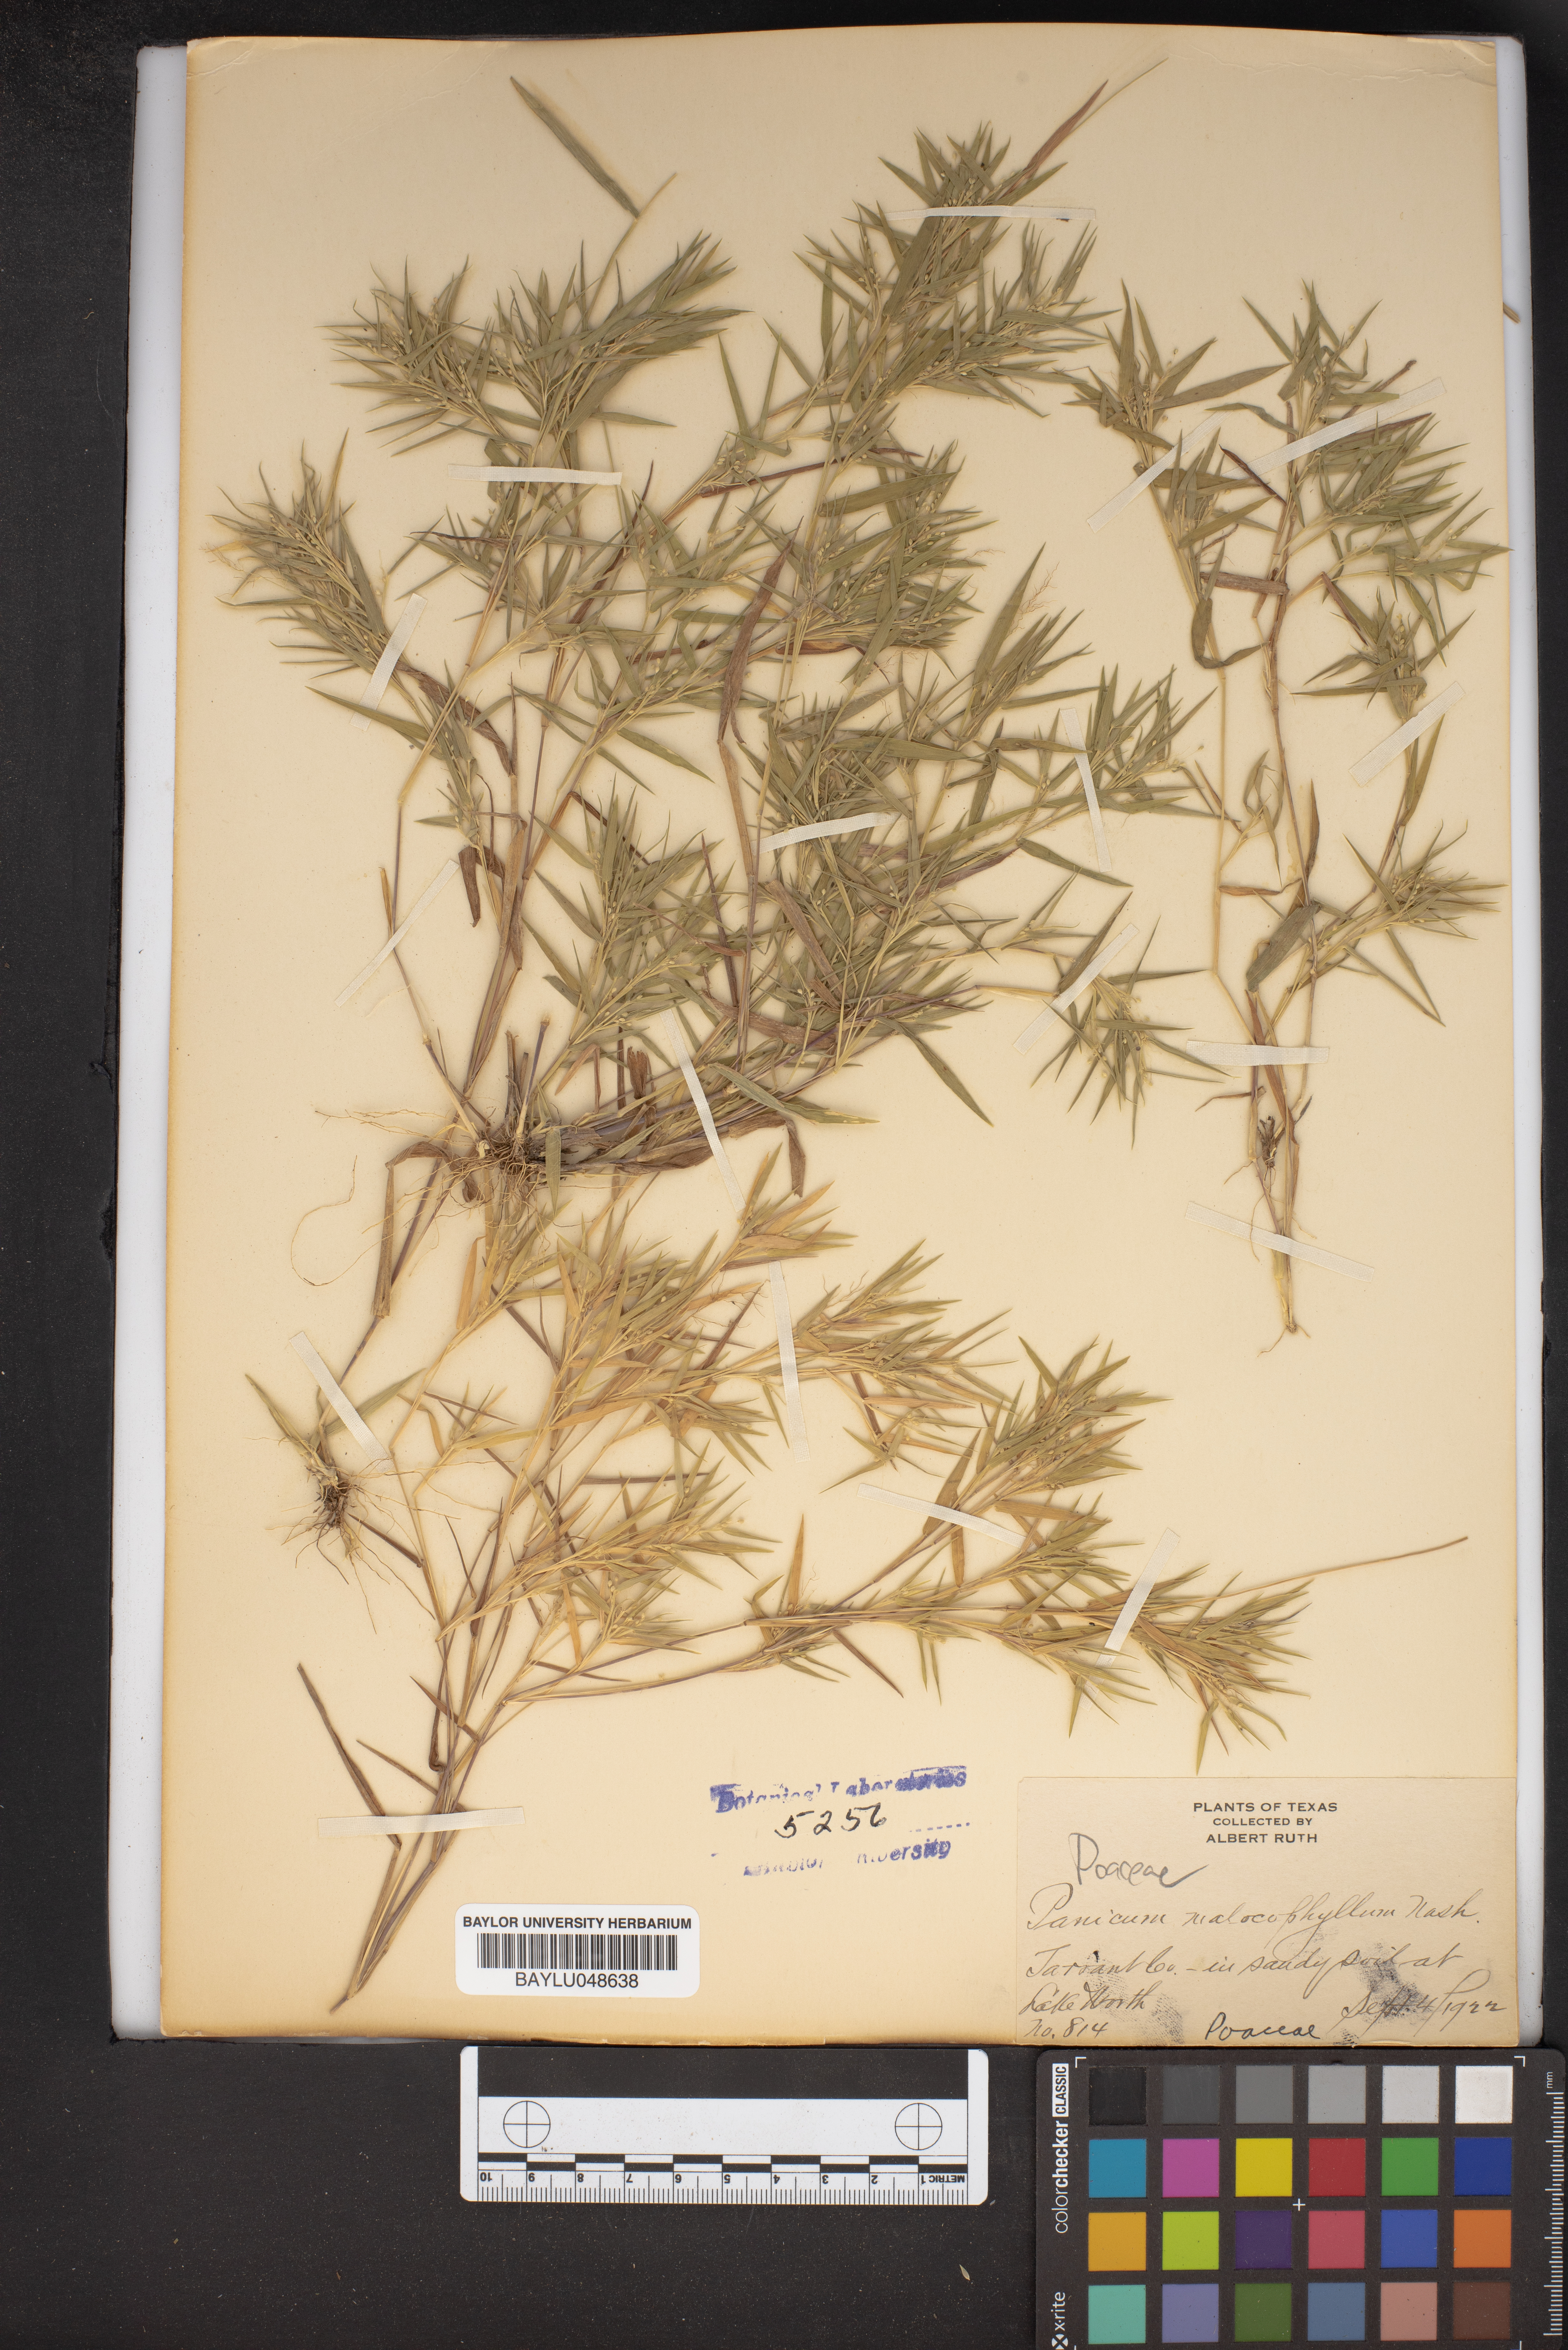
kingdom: Plantae
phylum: Tracheophyta
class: Liliopsida
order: Poales
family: Poaceae
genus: Dichanthelium
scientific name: Dichanthelium malacophyllum
